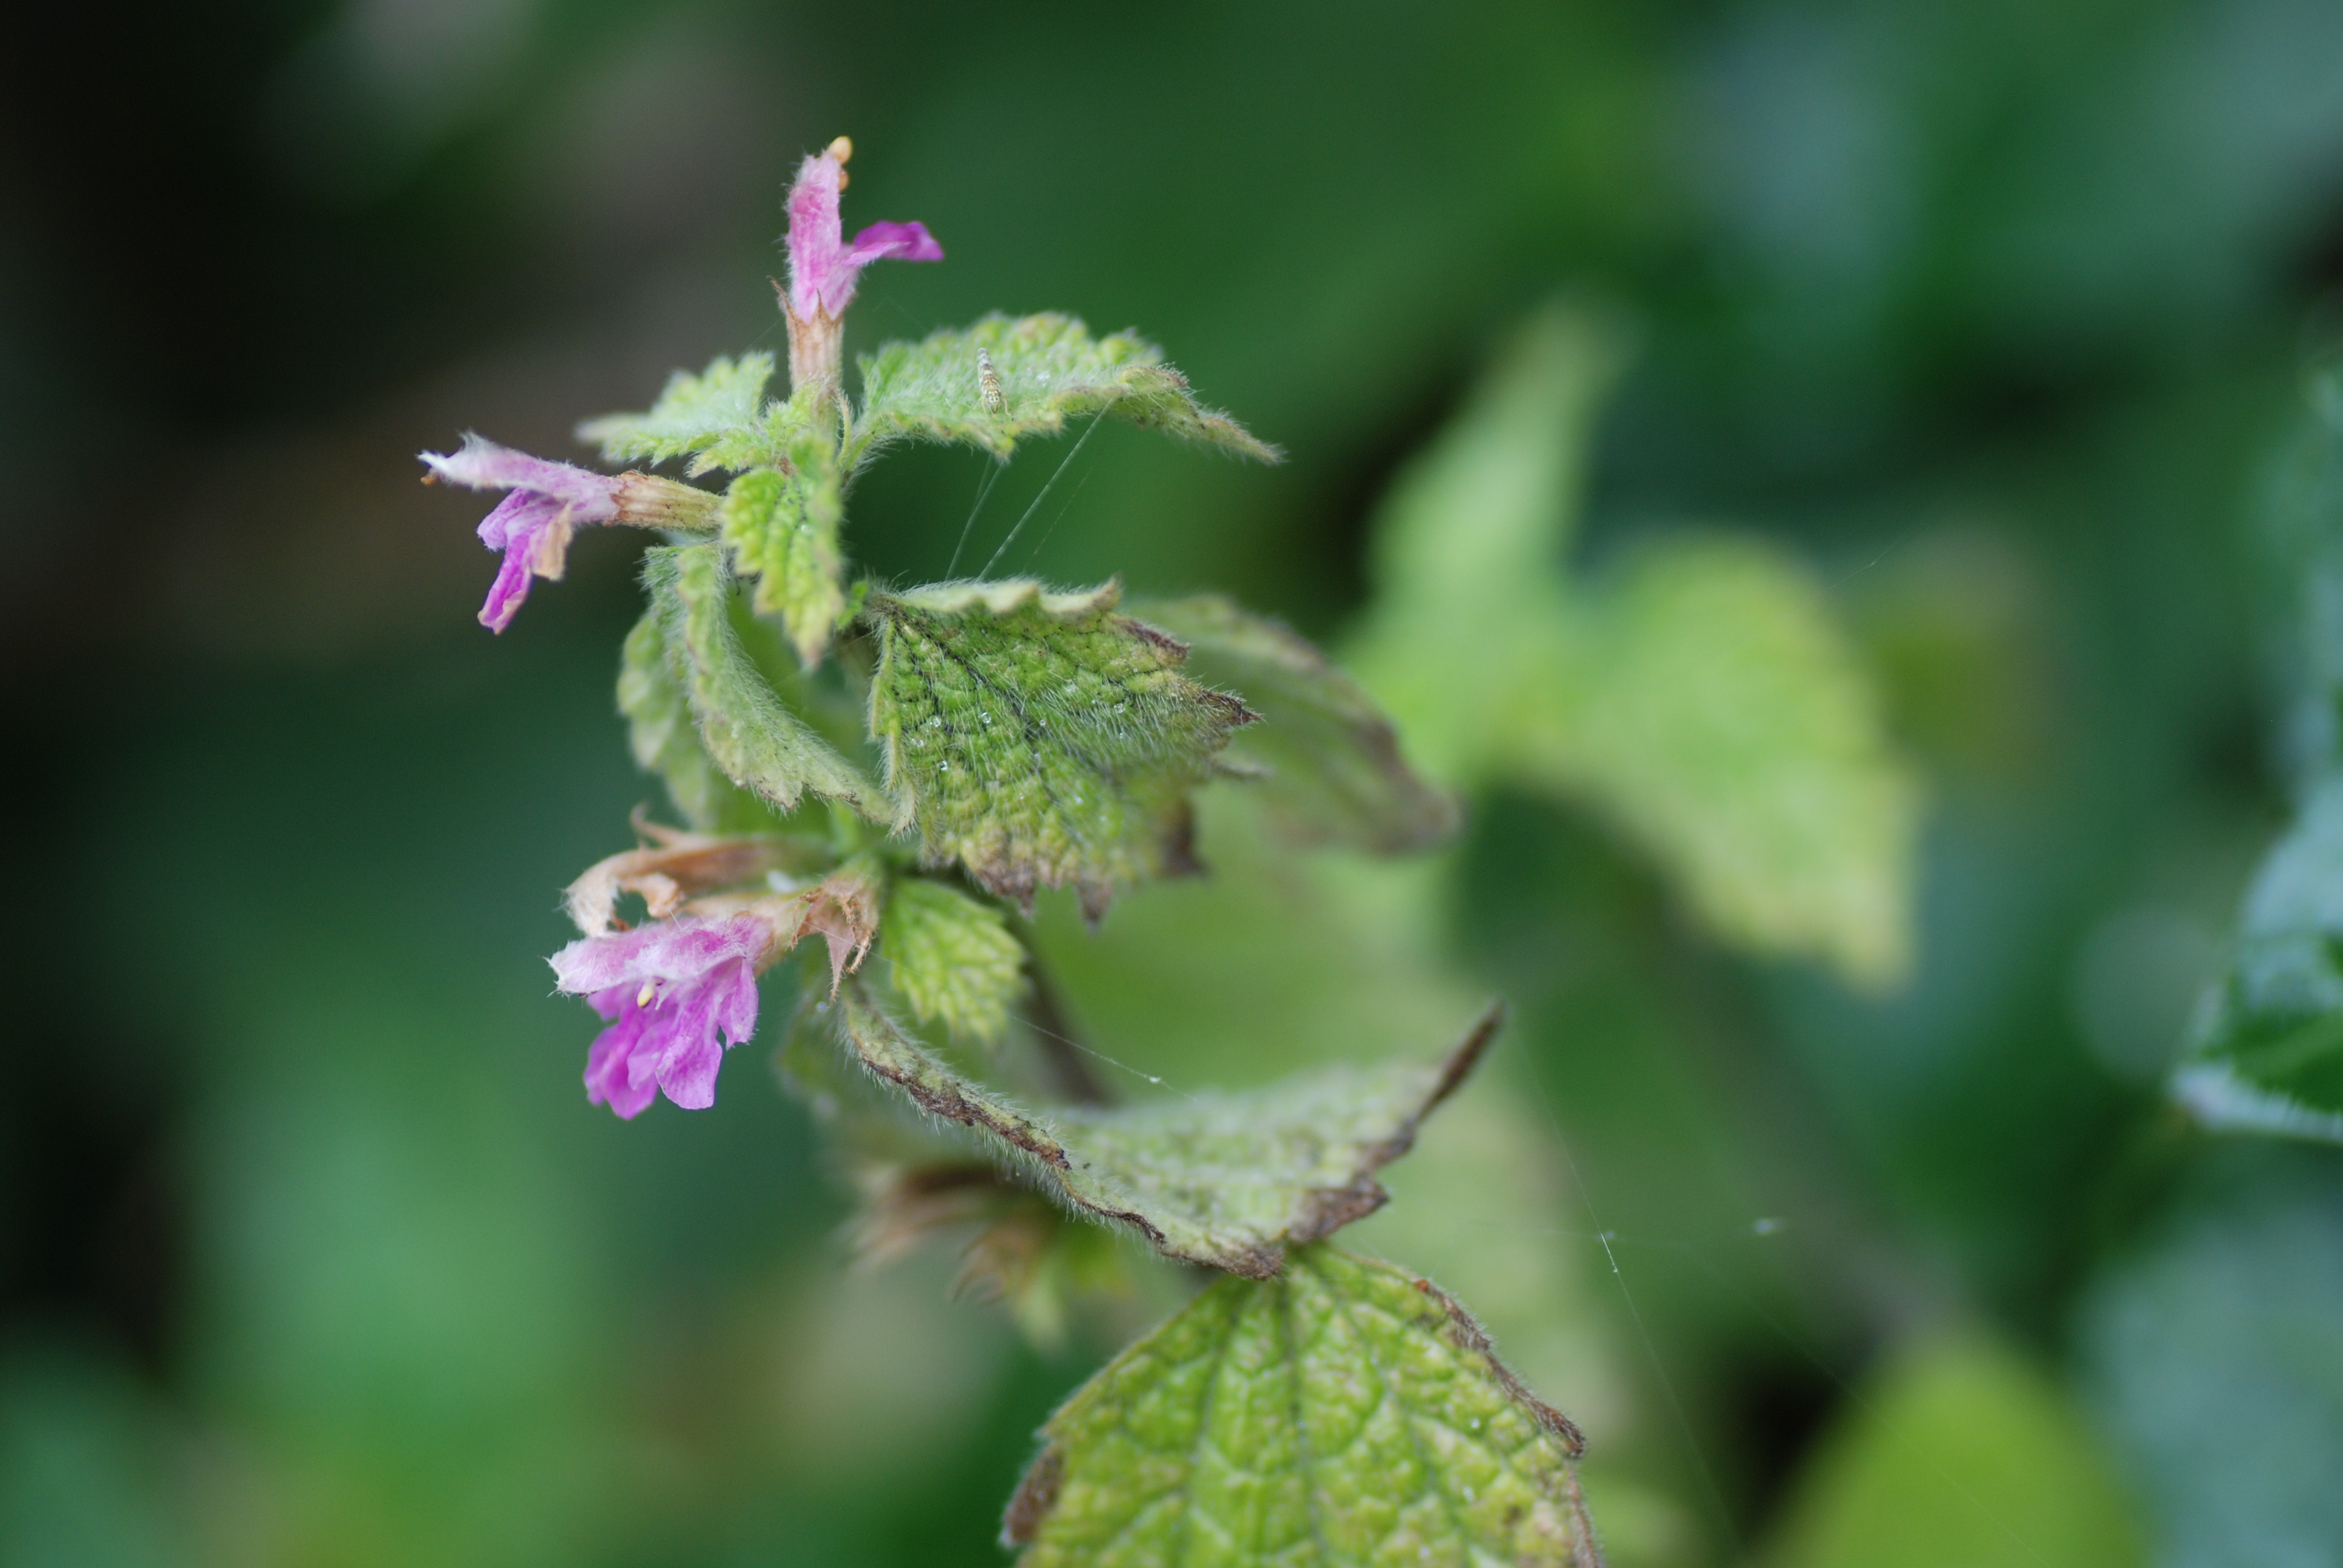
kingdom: Plantae
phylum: Tracheophyta
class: Magnoliopsida
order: Lamiales
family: Lamiaceae
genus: Ballota
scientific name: Ballota nigra
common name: Black horehound
